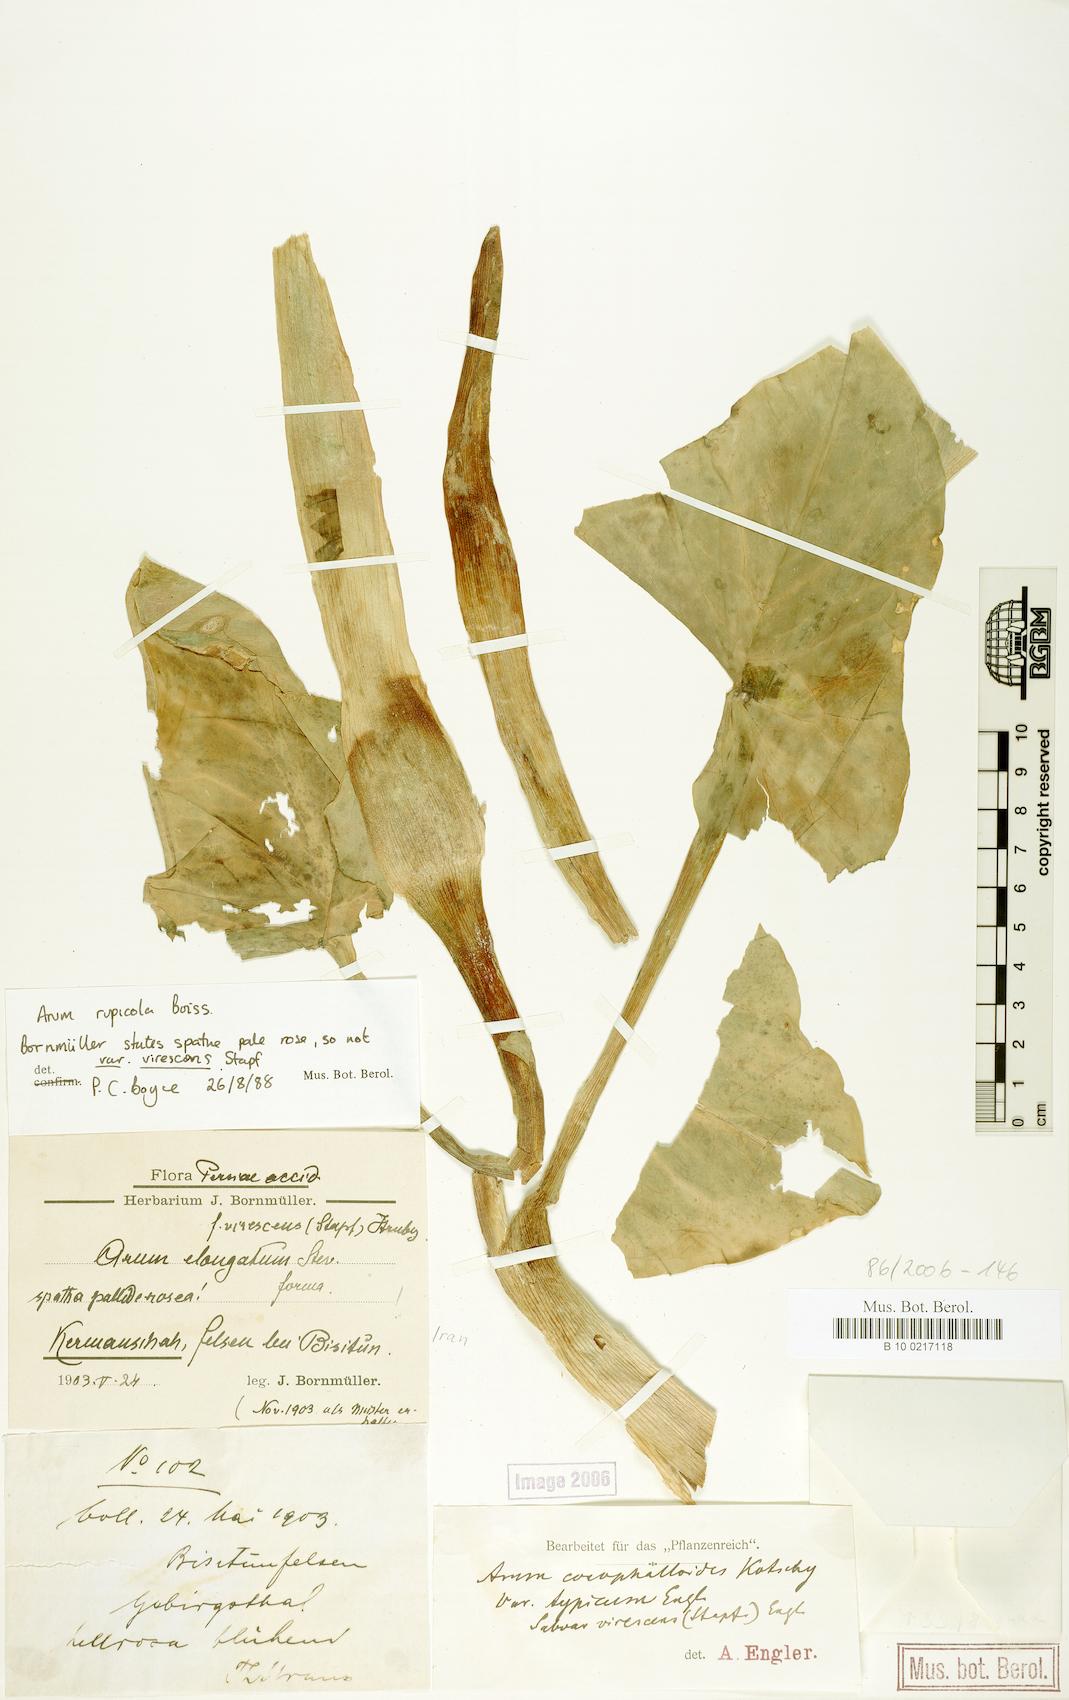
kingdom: Plantae
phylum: Tracheophyta
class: Liliopsida
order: Alismatales
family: Araceae
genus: Arum
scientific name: Arum rupicola
